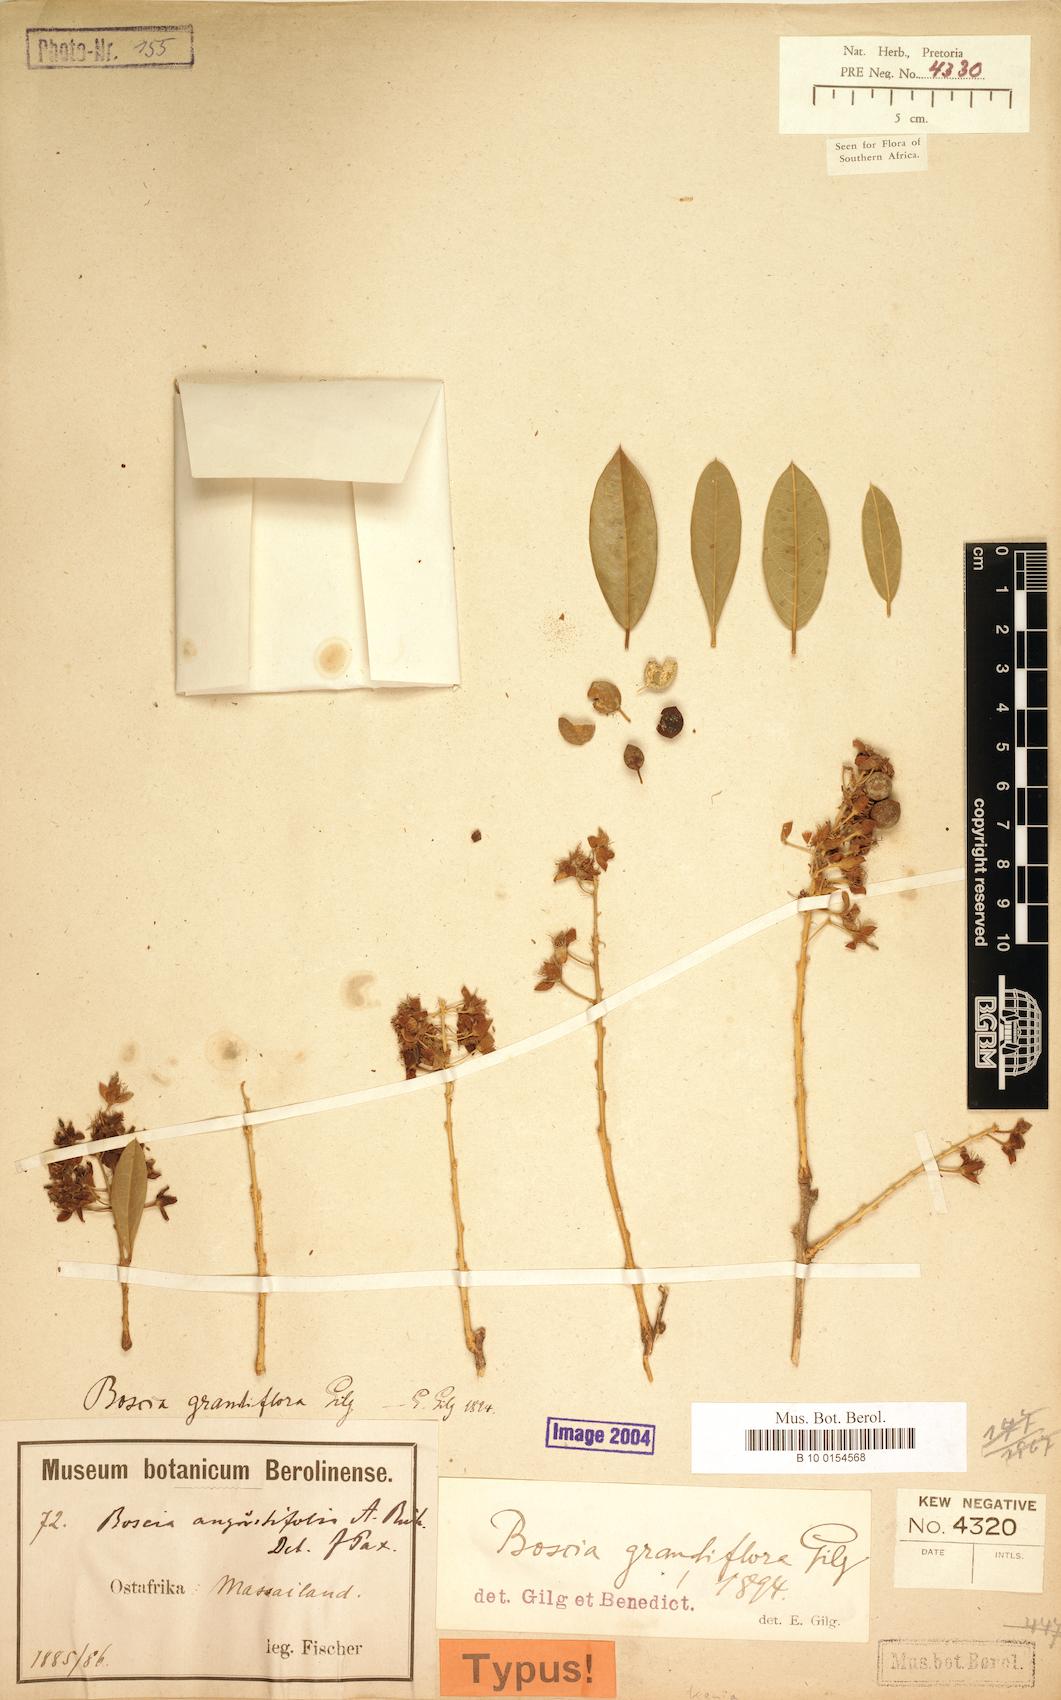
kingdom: Plantae
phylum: Tracheophyta
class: Magnoliopsida
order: Brassicales
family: Capparaceae
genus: Boscia
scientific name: Boscia mossambicensis
